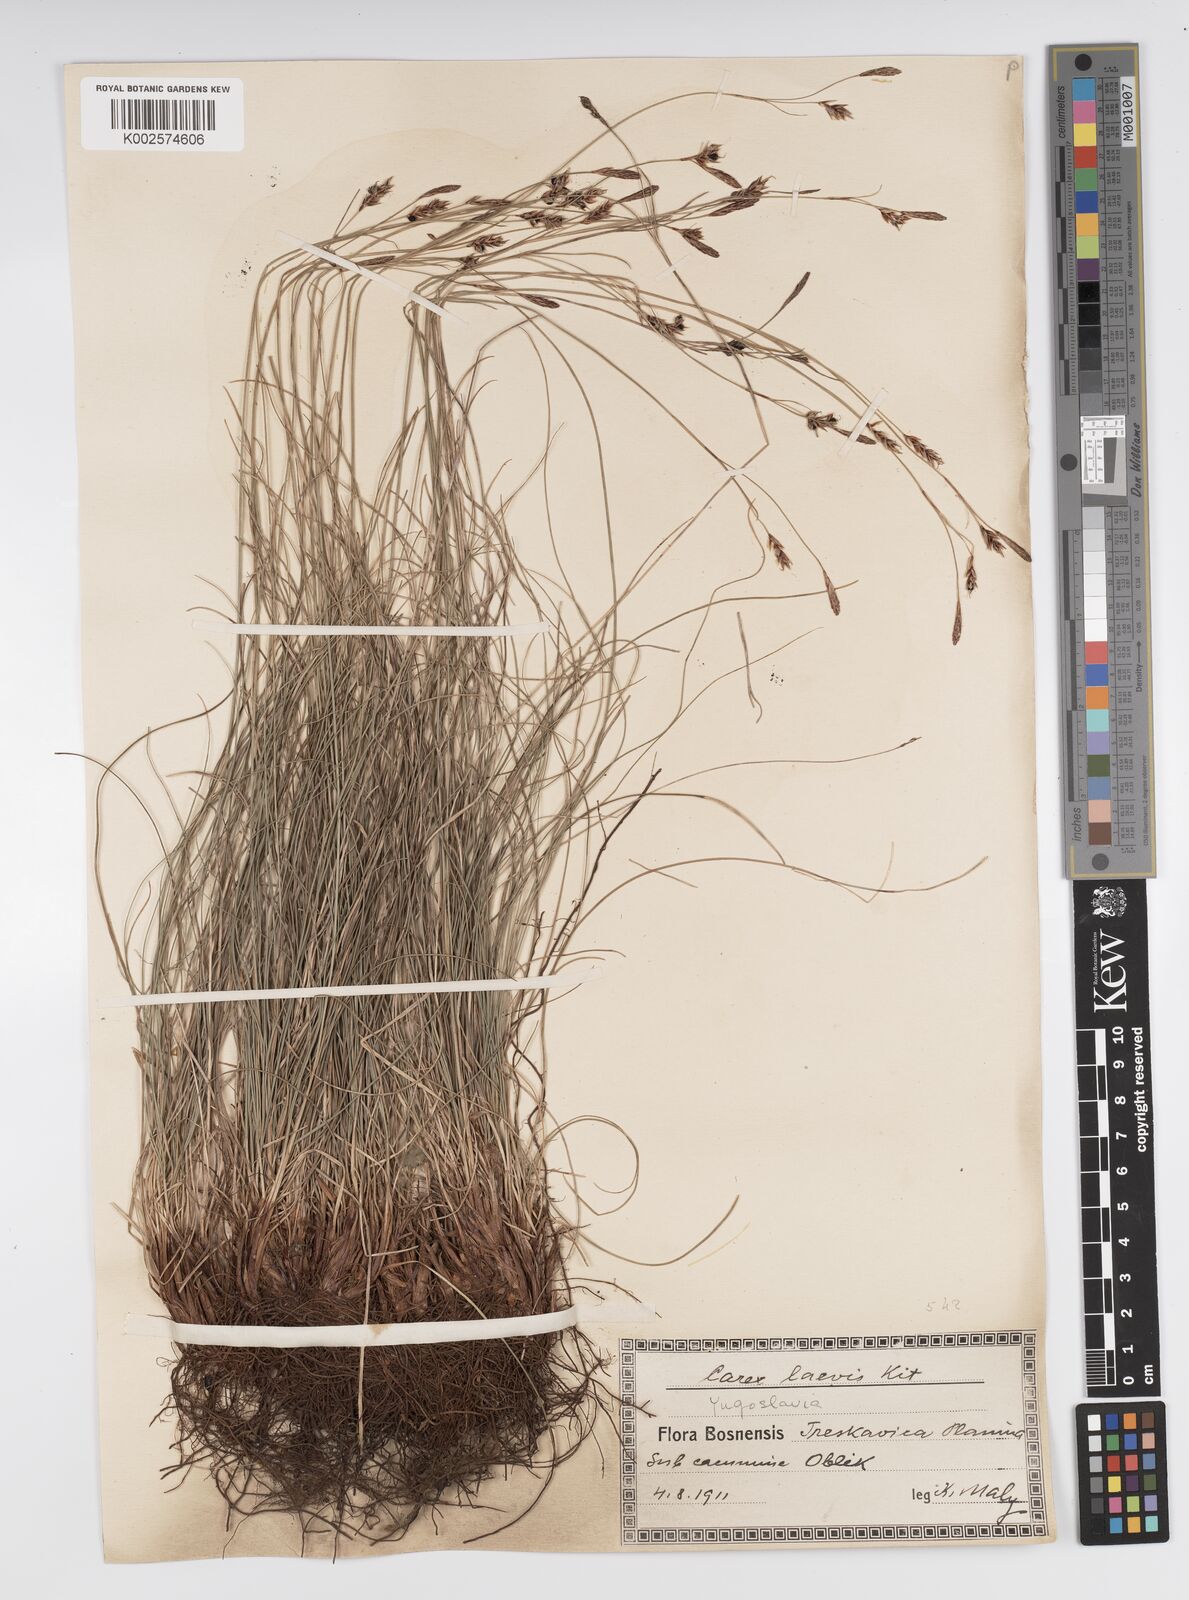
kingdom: Plantae
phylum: Tracheophyta
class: Liliopsida
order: Poales
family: Cyperaceae
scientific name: Cyperaceae
